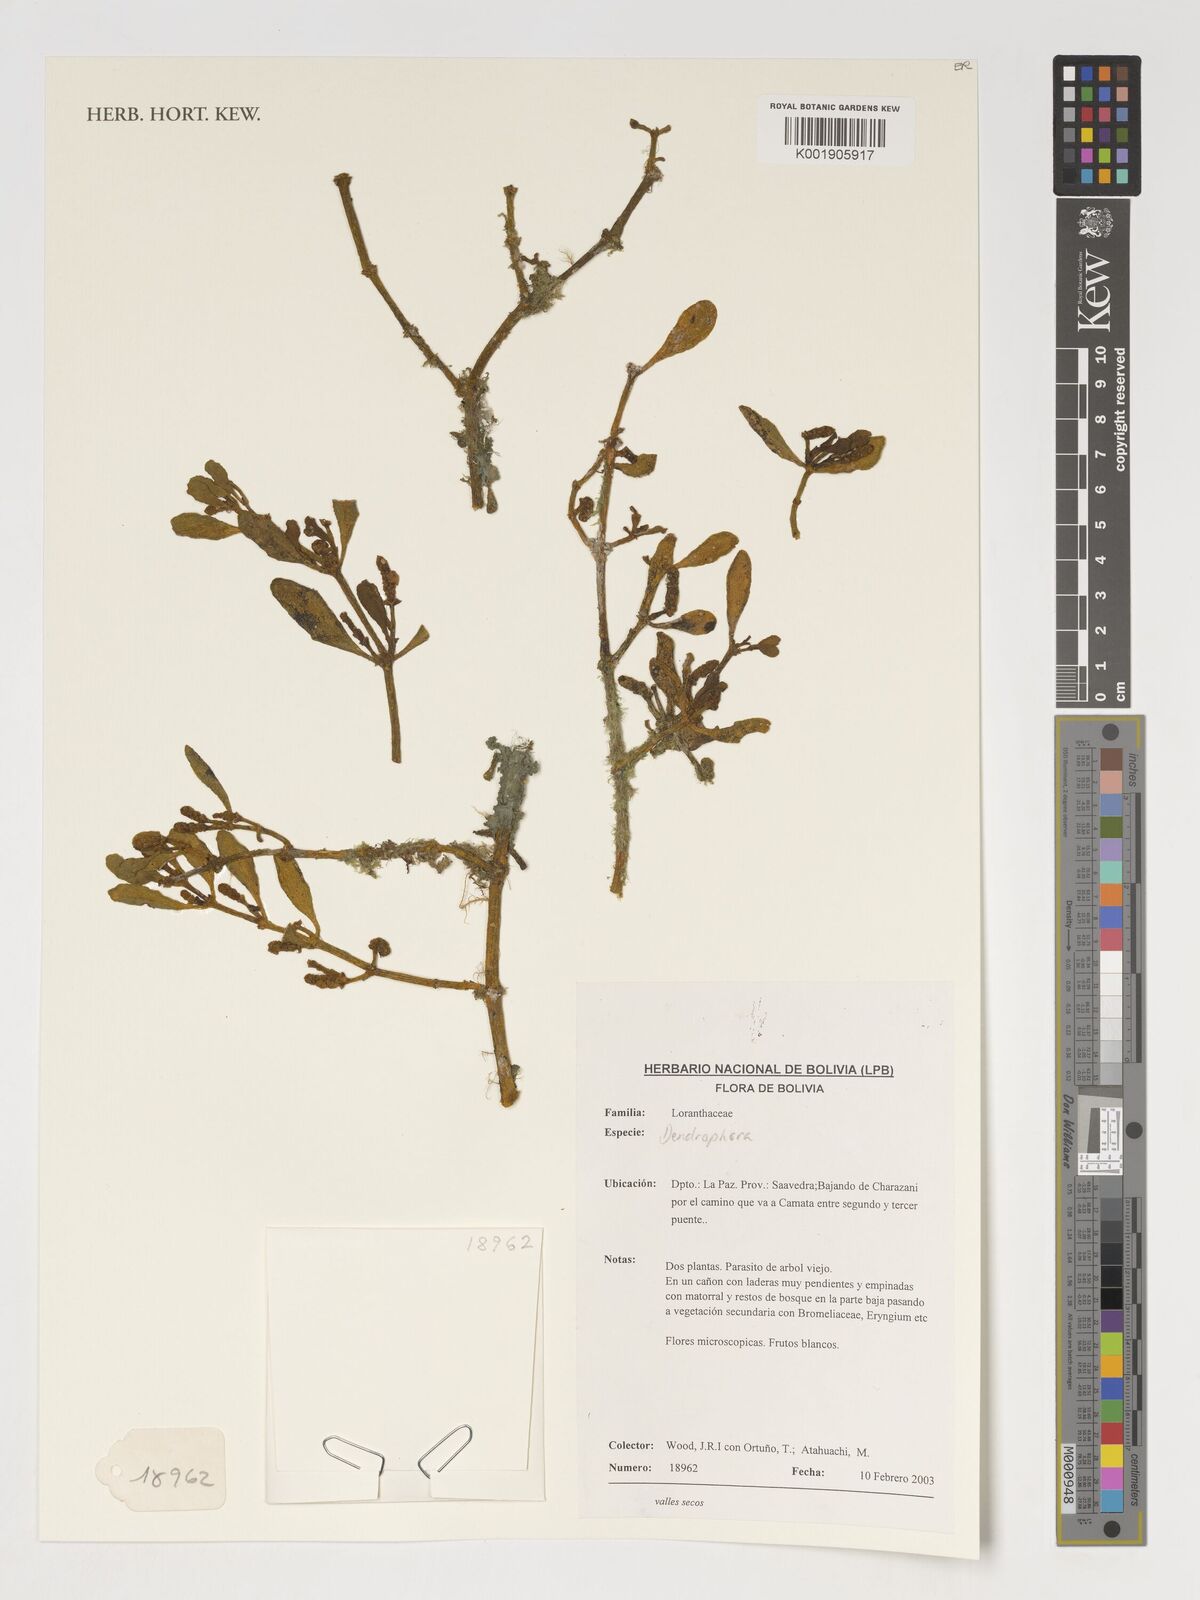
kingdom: Plantae
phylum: Tracheophyta
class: Magnoliopsida
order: Santalales
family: Viscaceae
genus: Dendrophthora
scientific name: Dendrophthora
